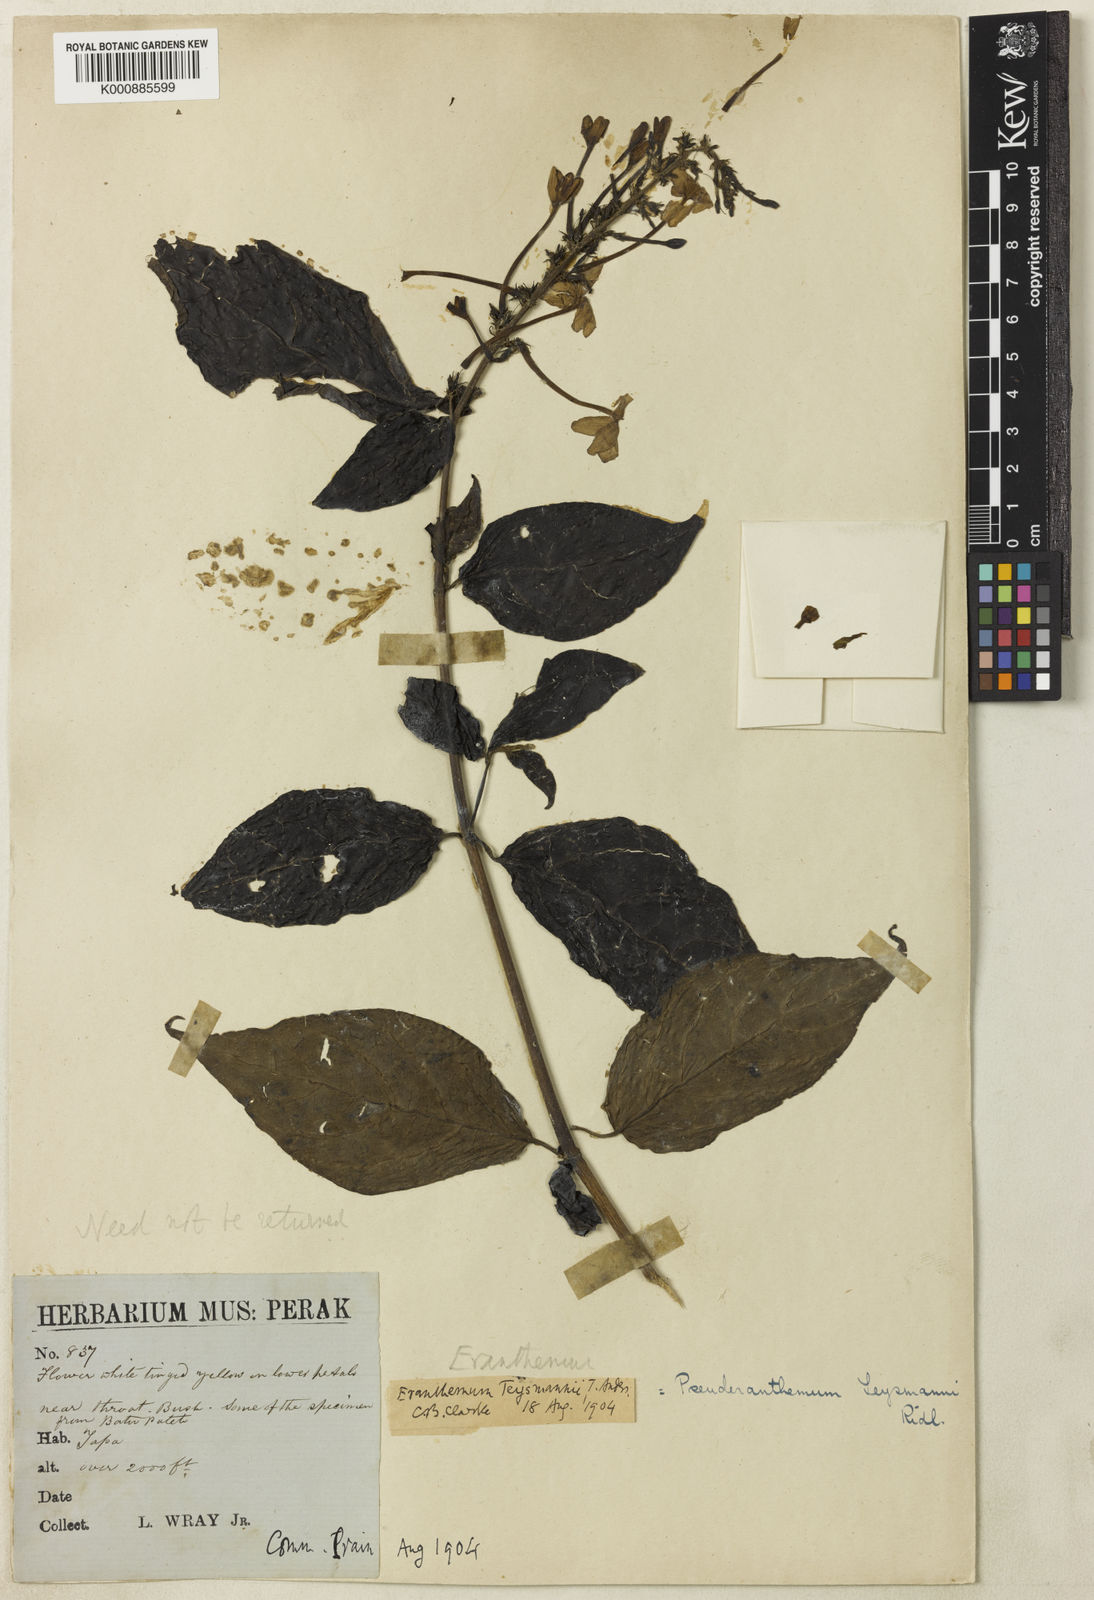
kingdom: Plantae
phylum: Tracheophyta
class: Magnoliopsida
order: Lamiales
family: Acanthaceae
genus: Pseuderanthemum
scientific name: Pseuderanthemum
